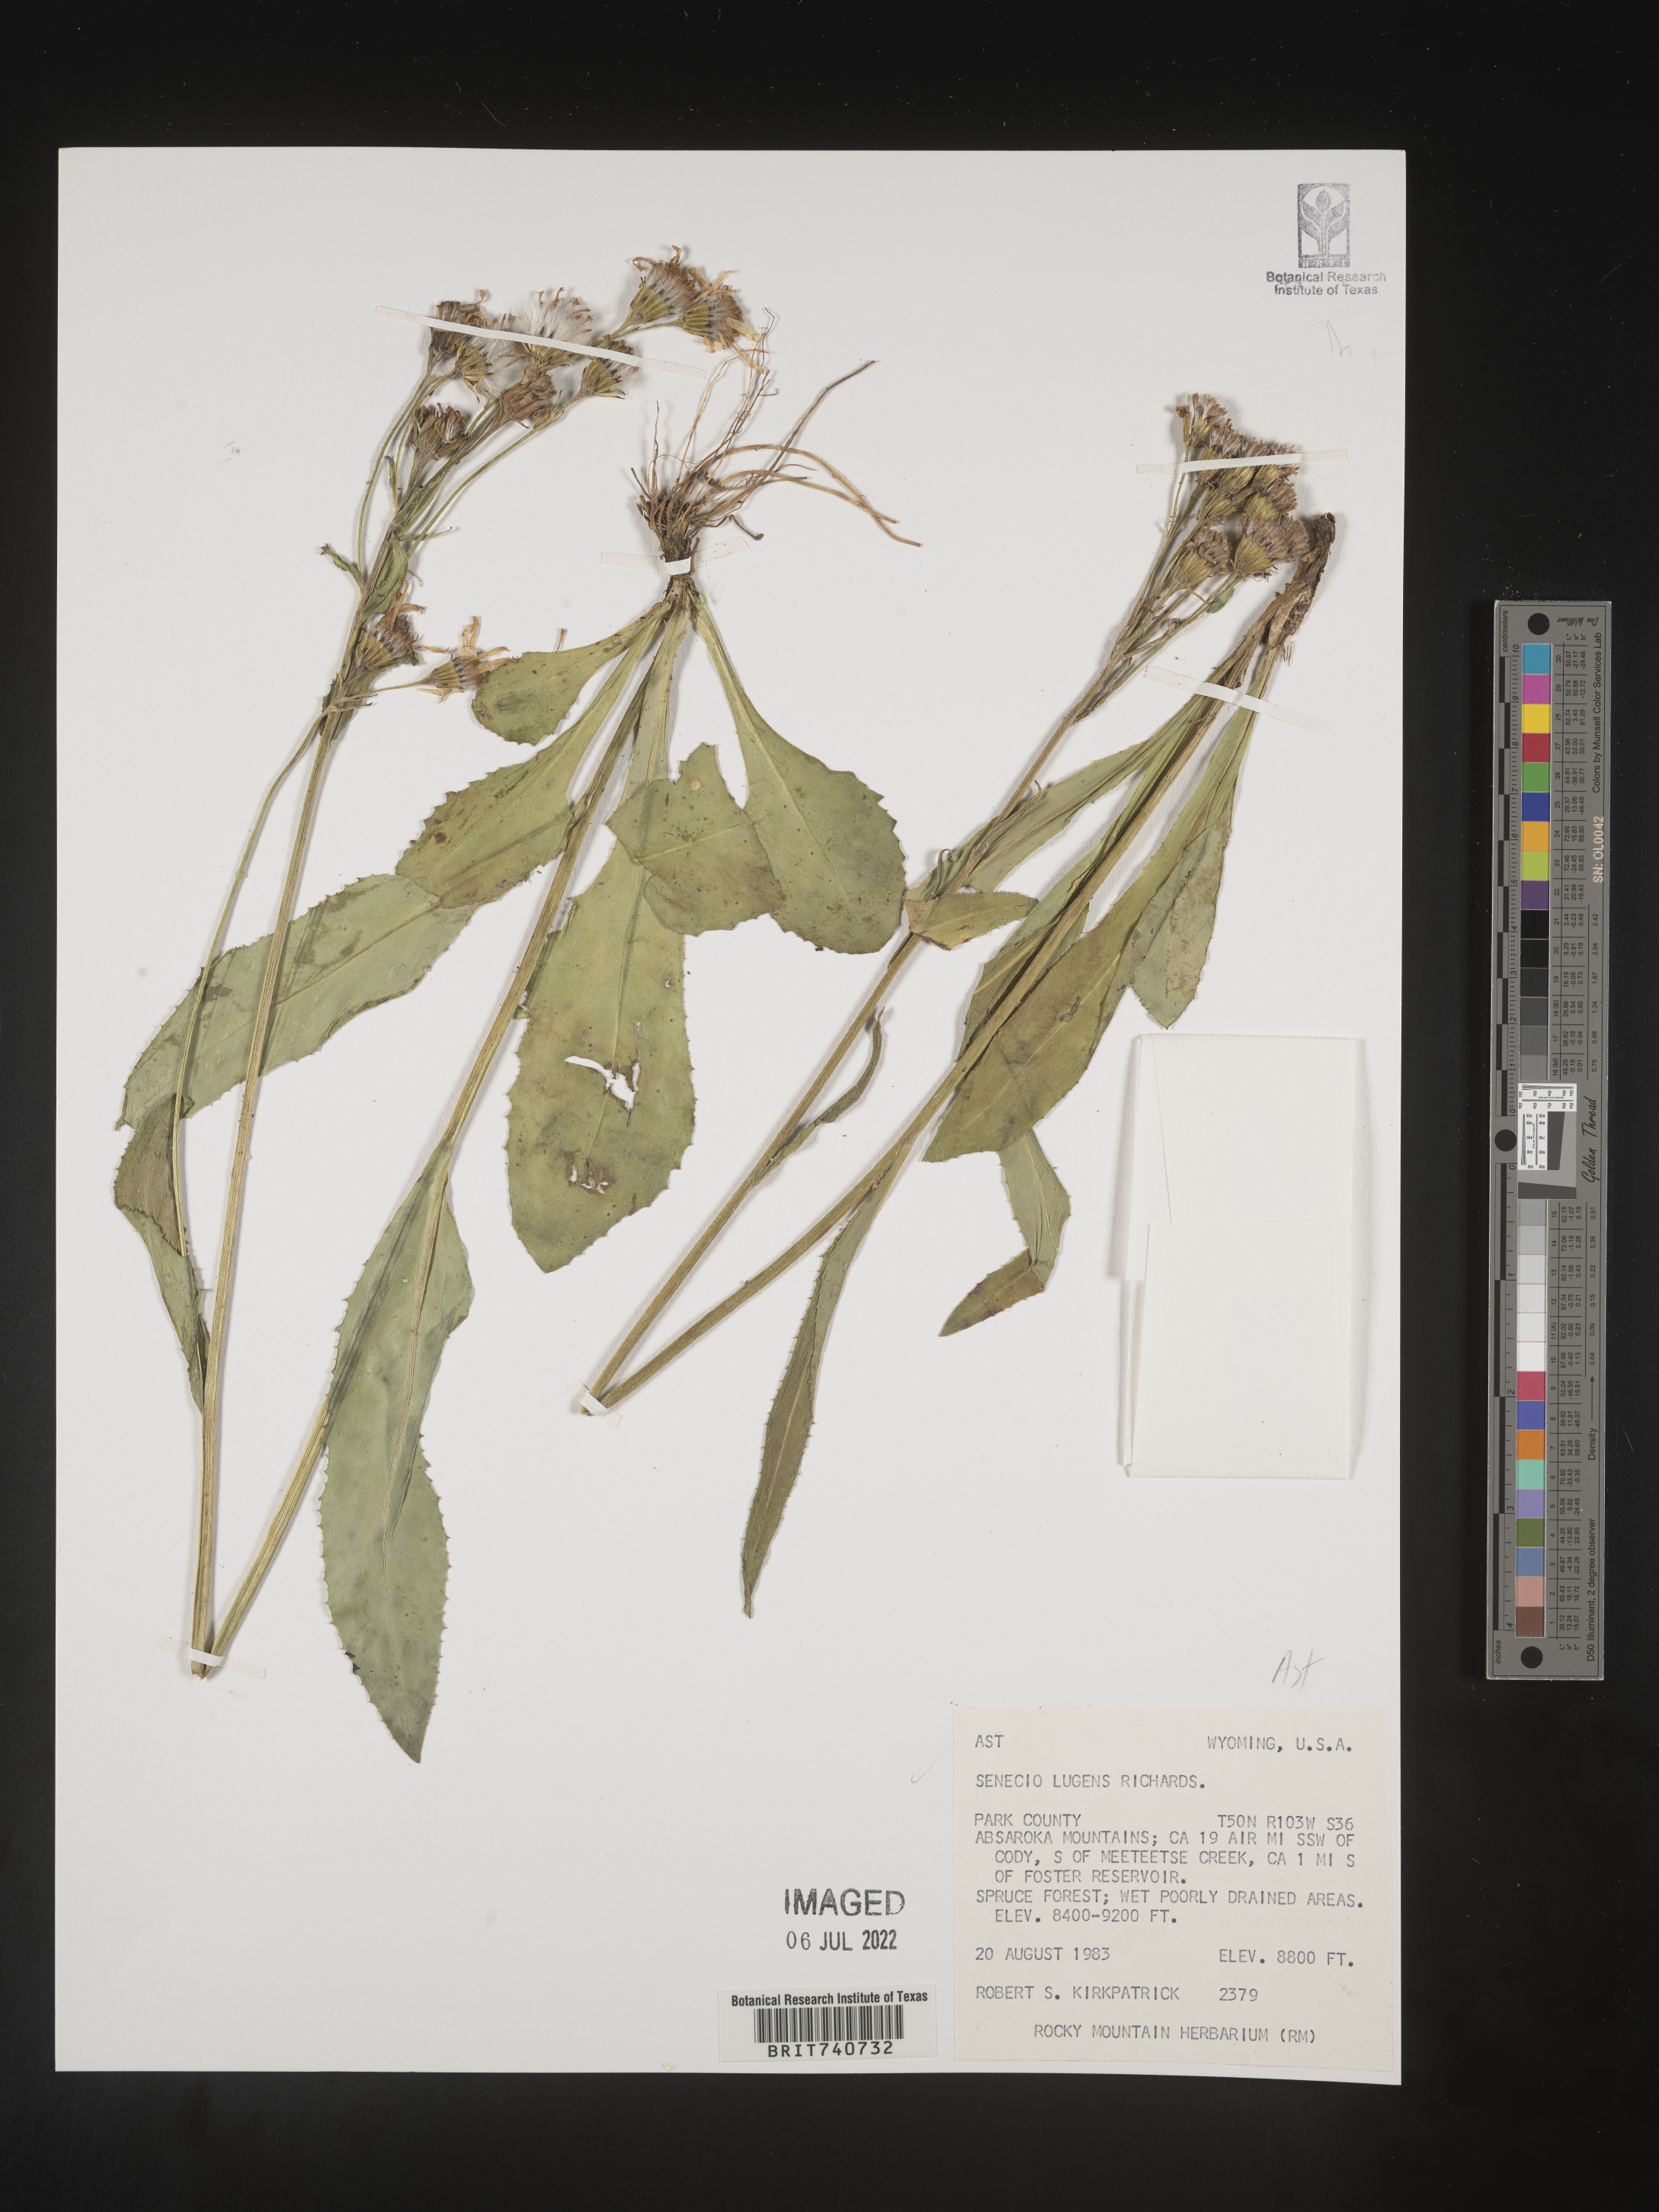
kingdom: Plantae
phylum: Tracheophyta
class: Magnoliopsida
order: Asterales
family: Asteraceae
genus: Senecio
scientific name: Senecio lugens
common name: Black-tip groundsel
